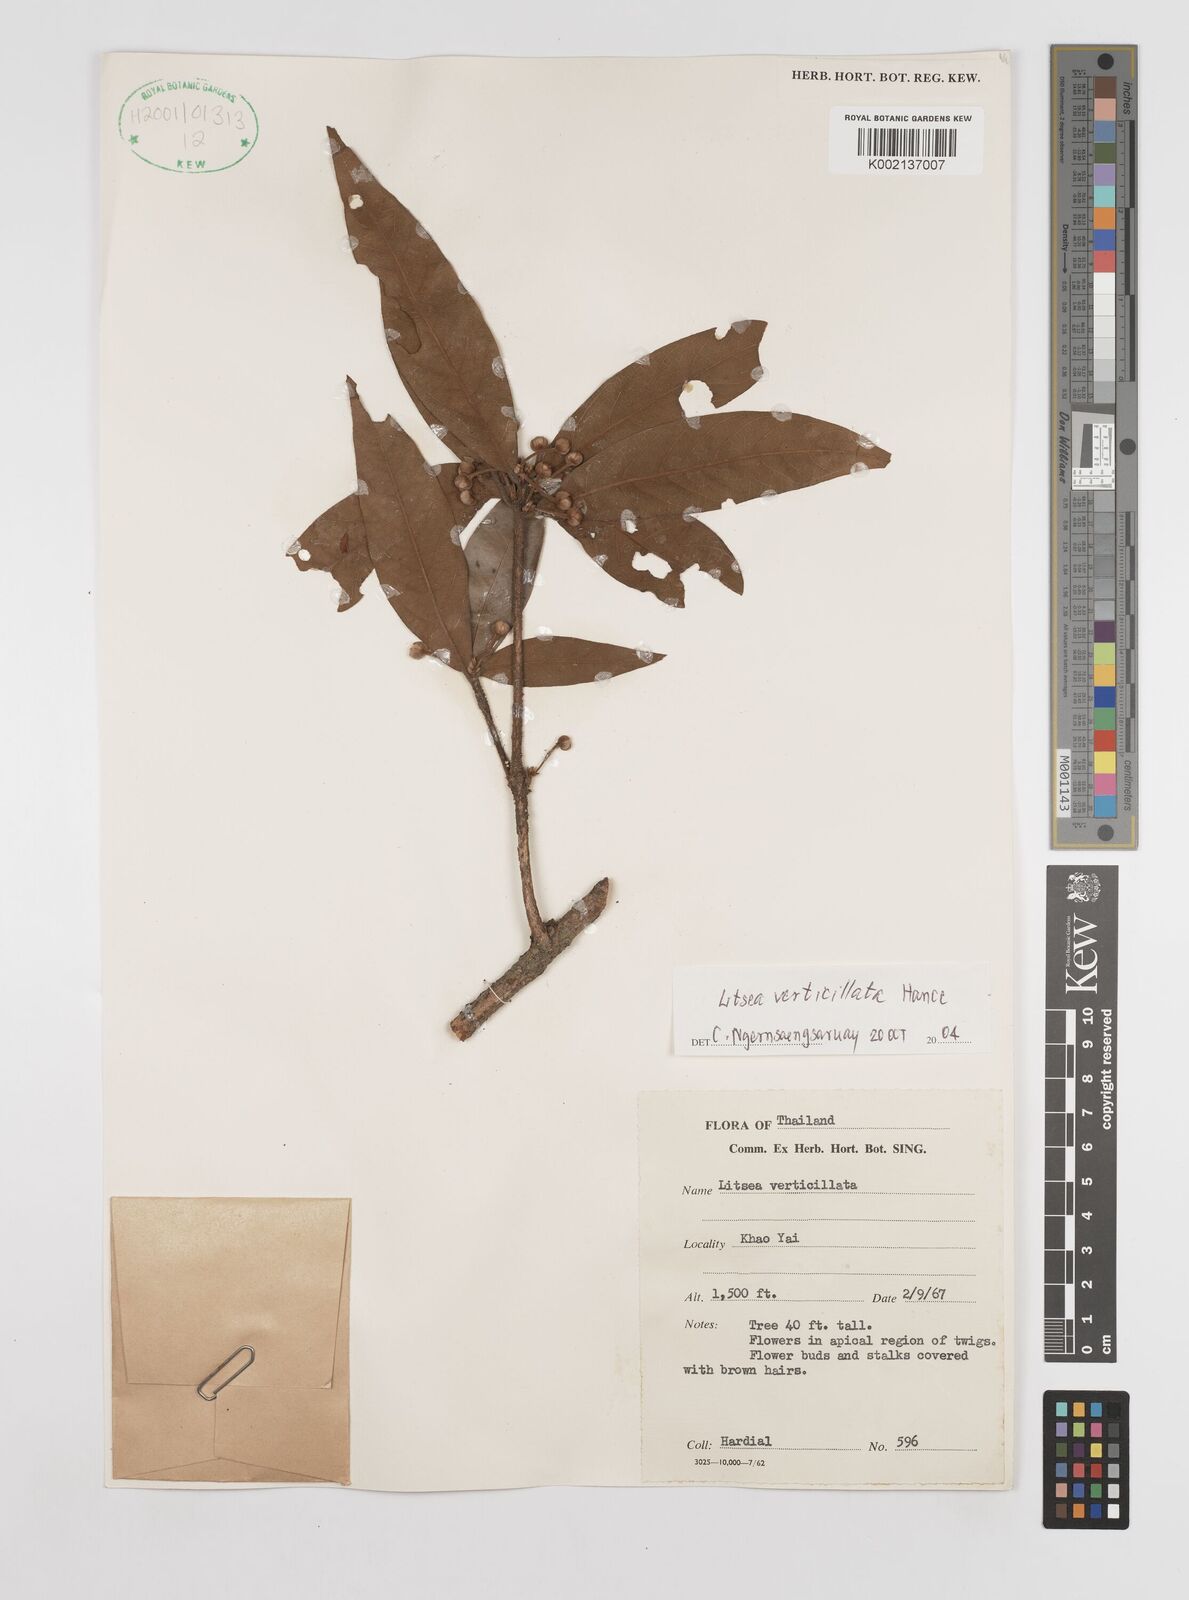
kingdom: Plantae
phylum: Tracheophyta
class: Magnoliopsida
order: Laurales
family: Lauraceae
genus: Litsea
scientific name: Litsea verticillata
